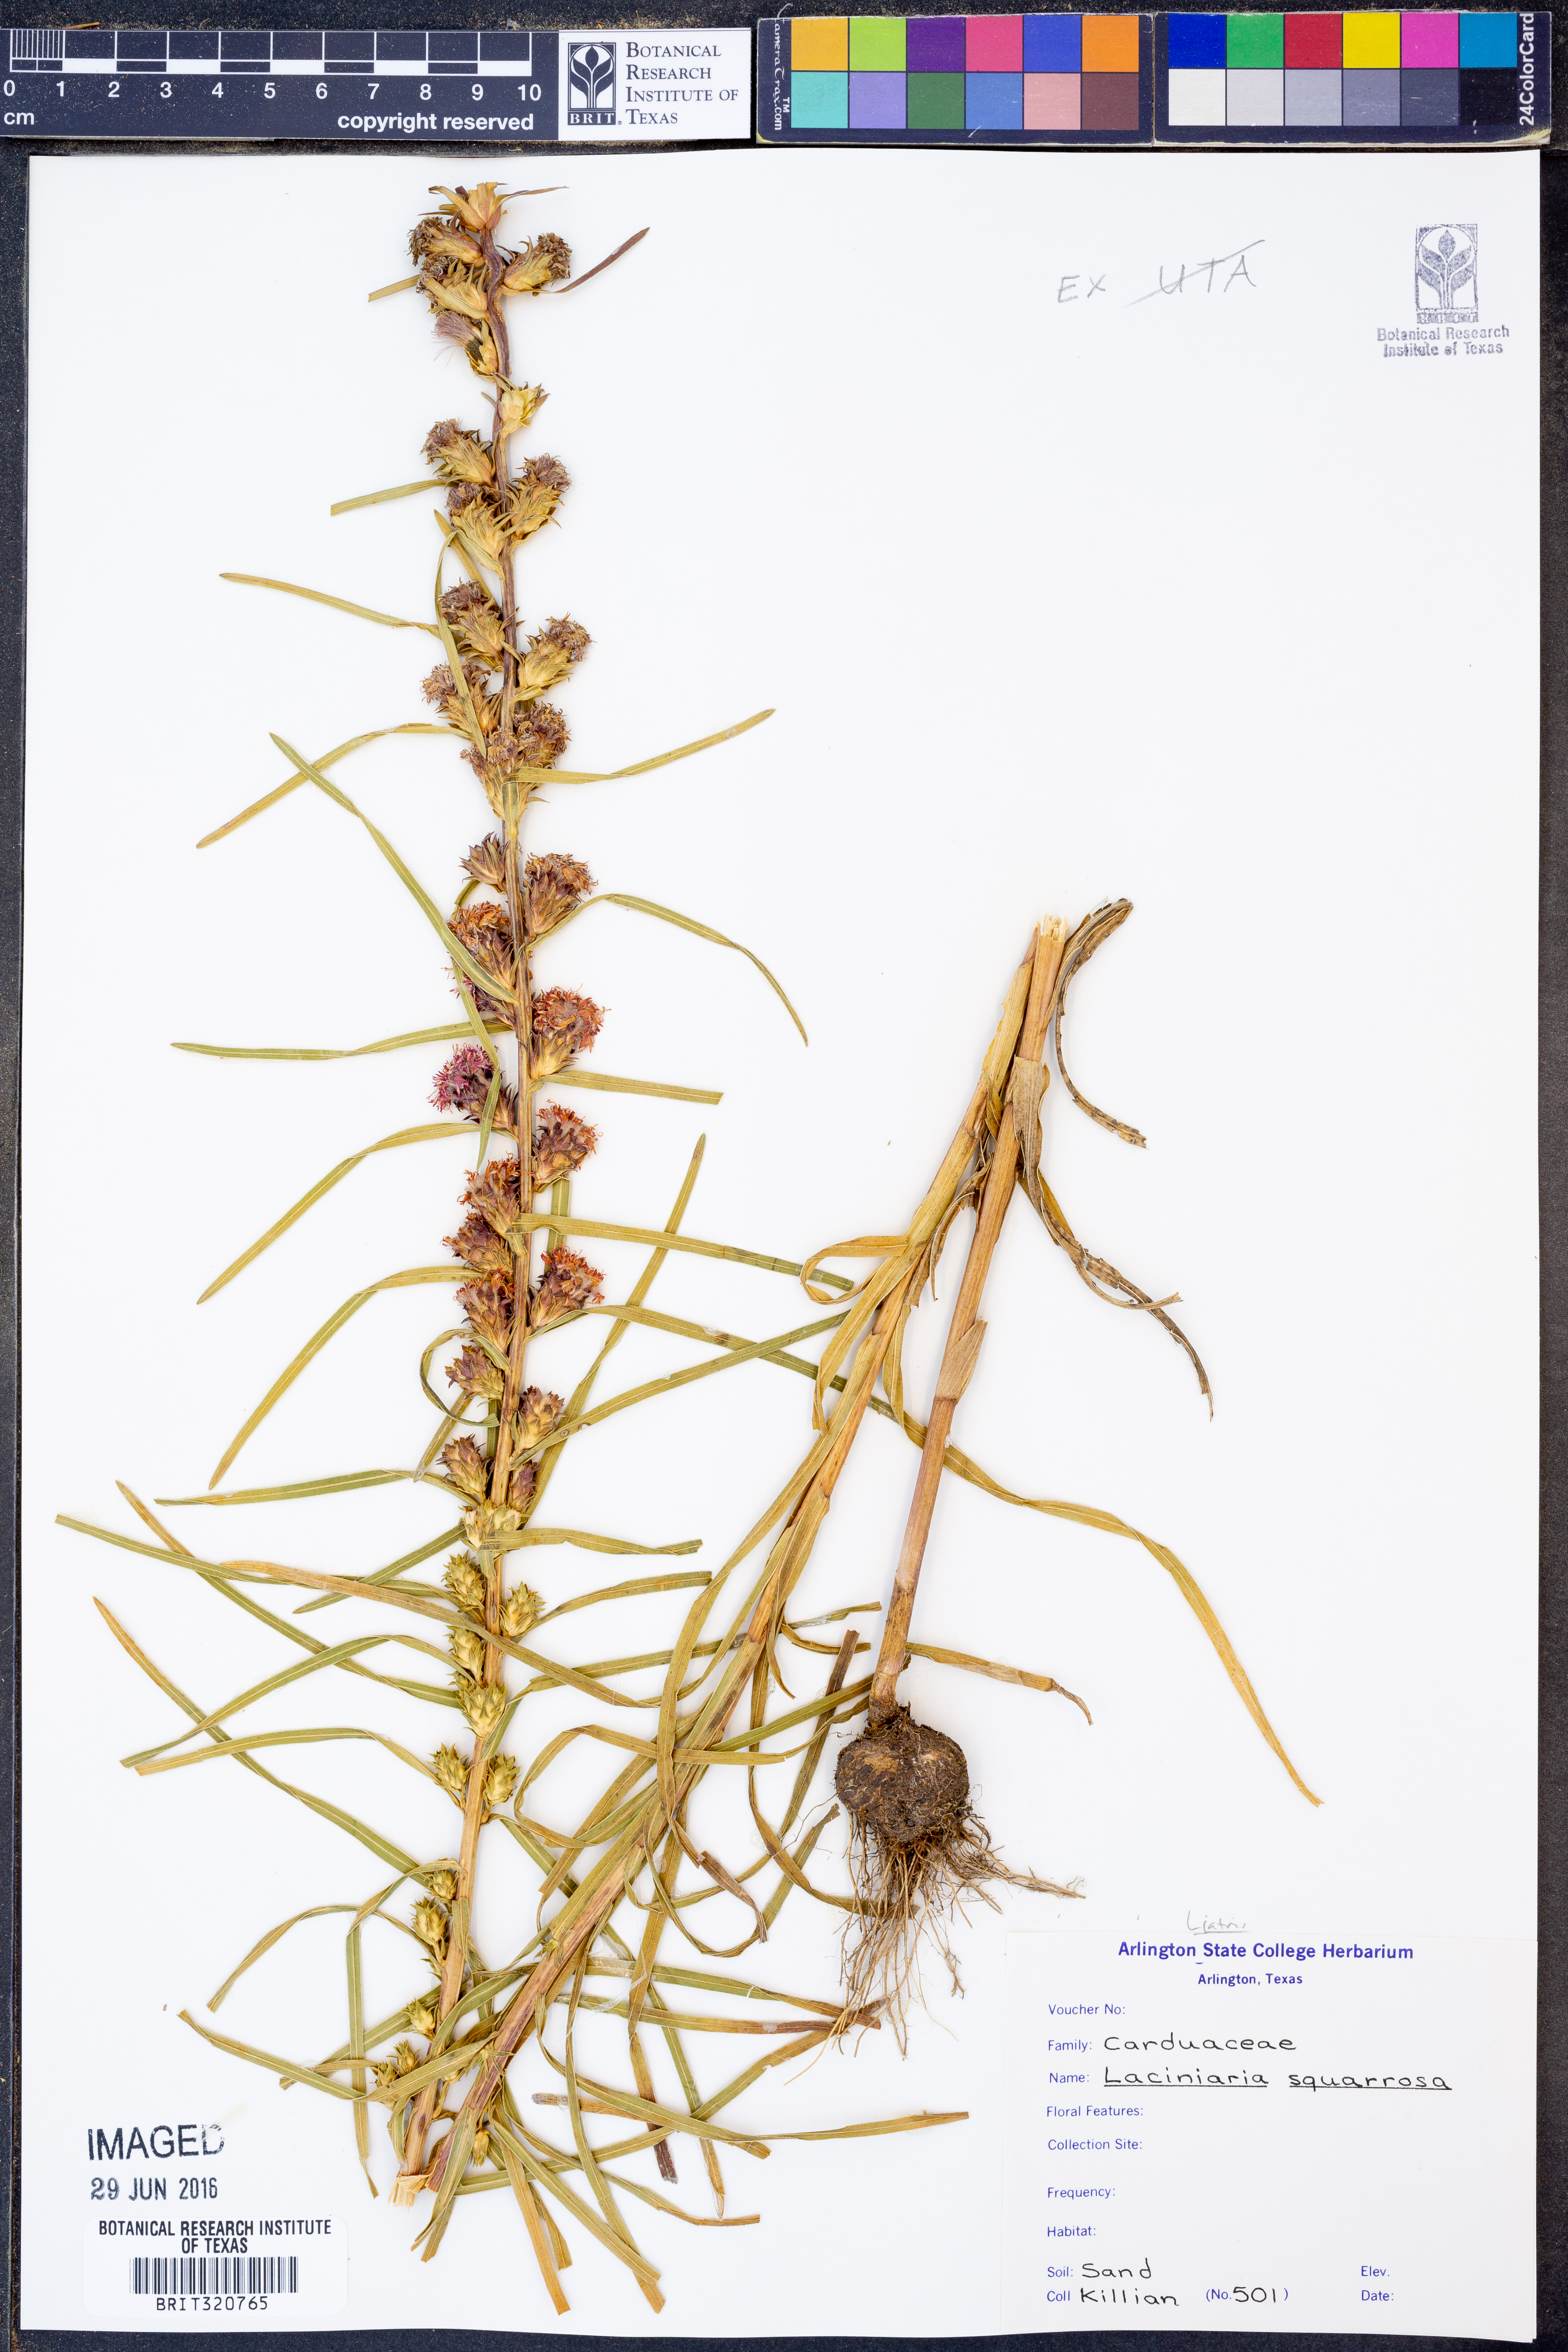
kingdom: Plantae
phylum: Tracheophyta
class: Magnoliopsida
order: Asterales
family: Asteraceae
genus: Liatris
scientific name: Liatris squarrosa
